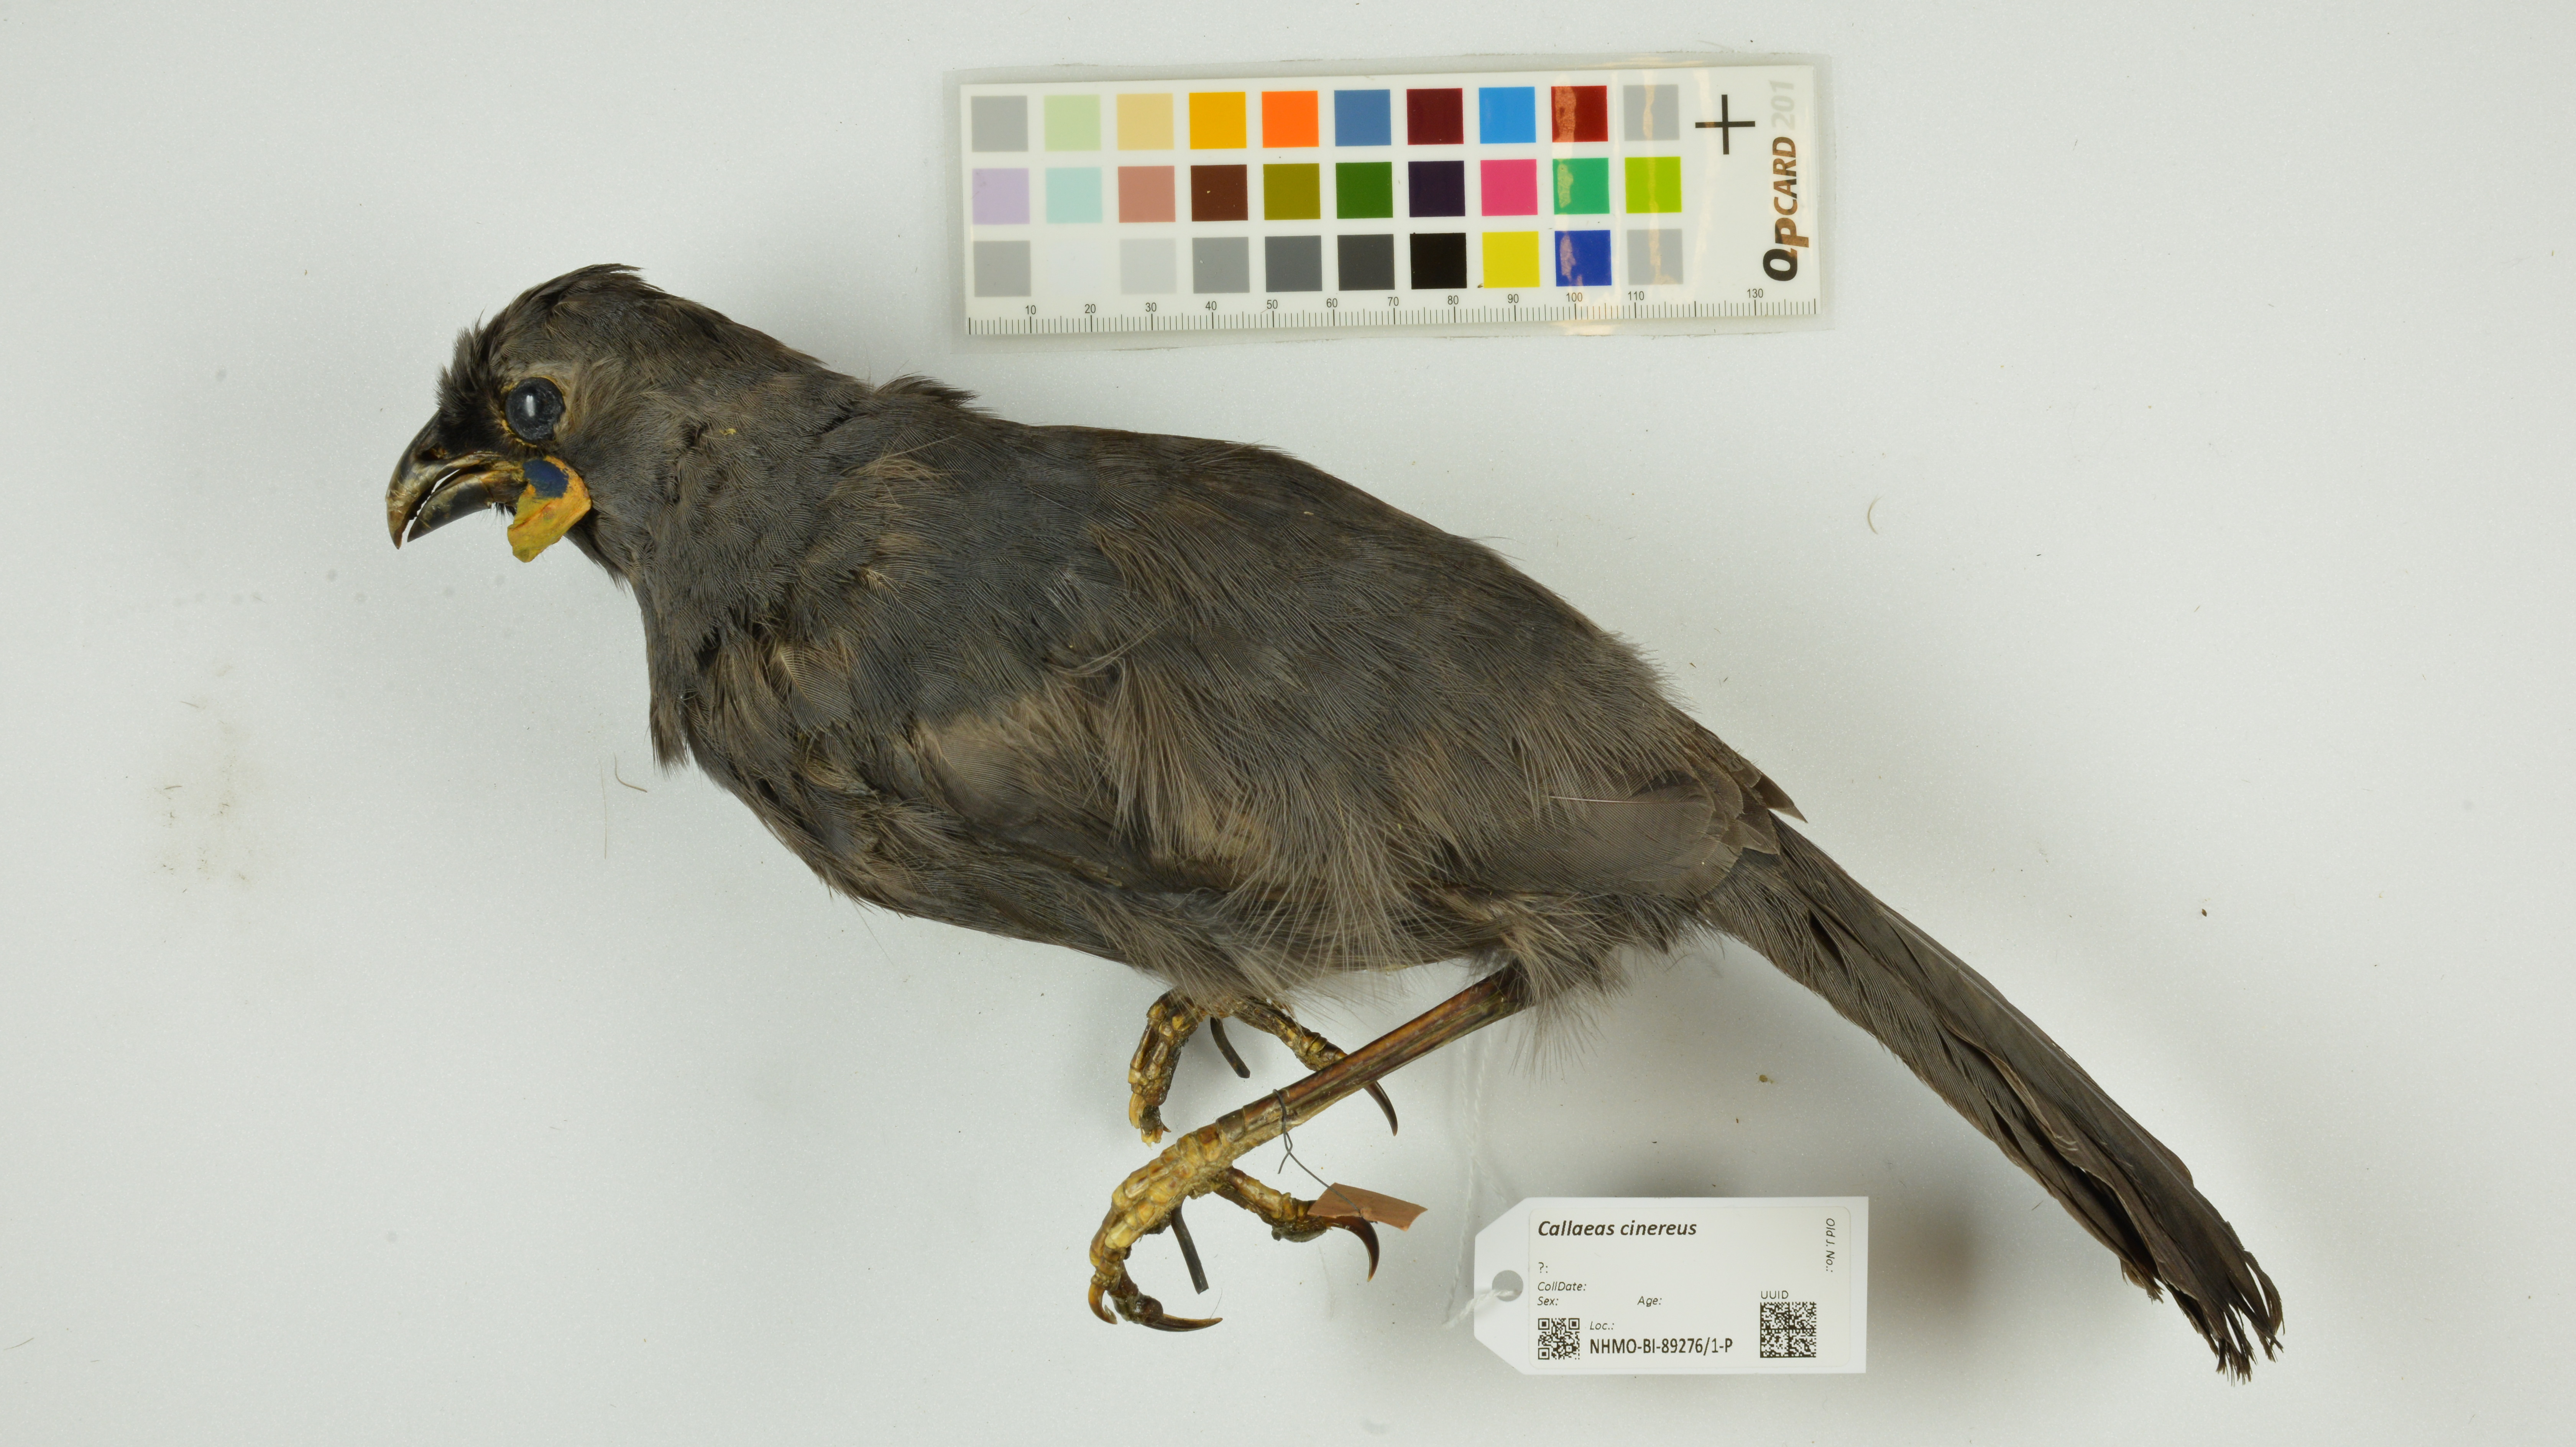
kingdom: Animalia
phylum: Chordata
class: Aves
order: Passeriformes
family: Callaeatidae
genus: Callaeas
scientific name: Callaeas cinereus
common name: South island kokako
